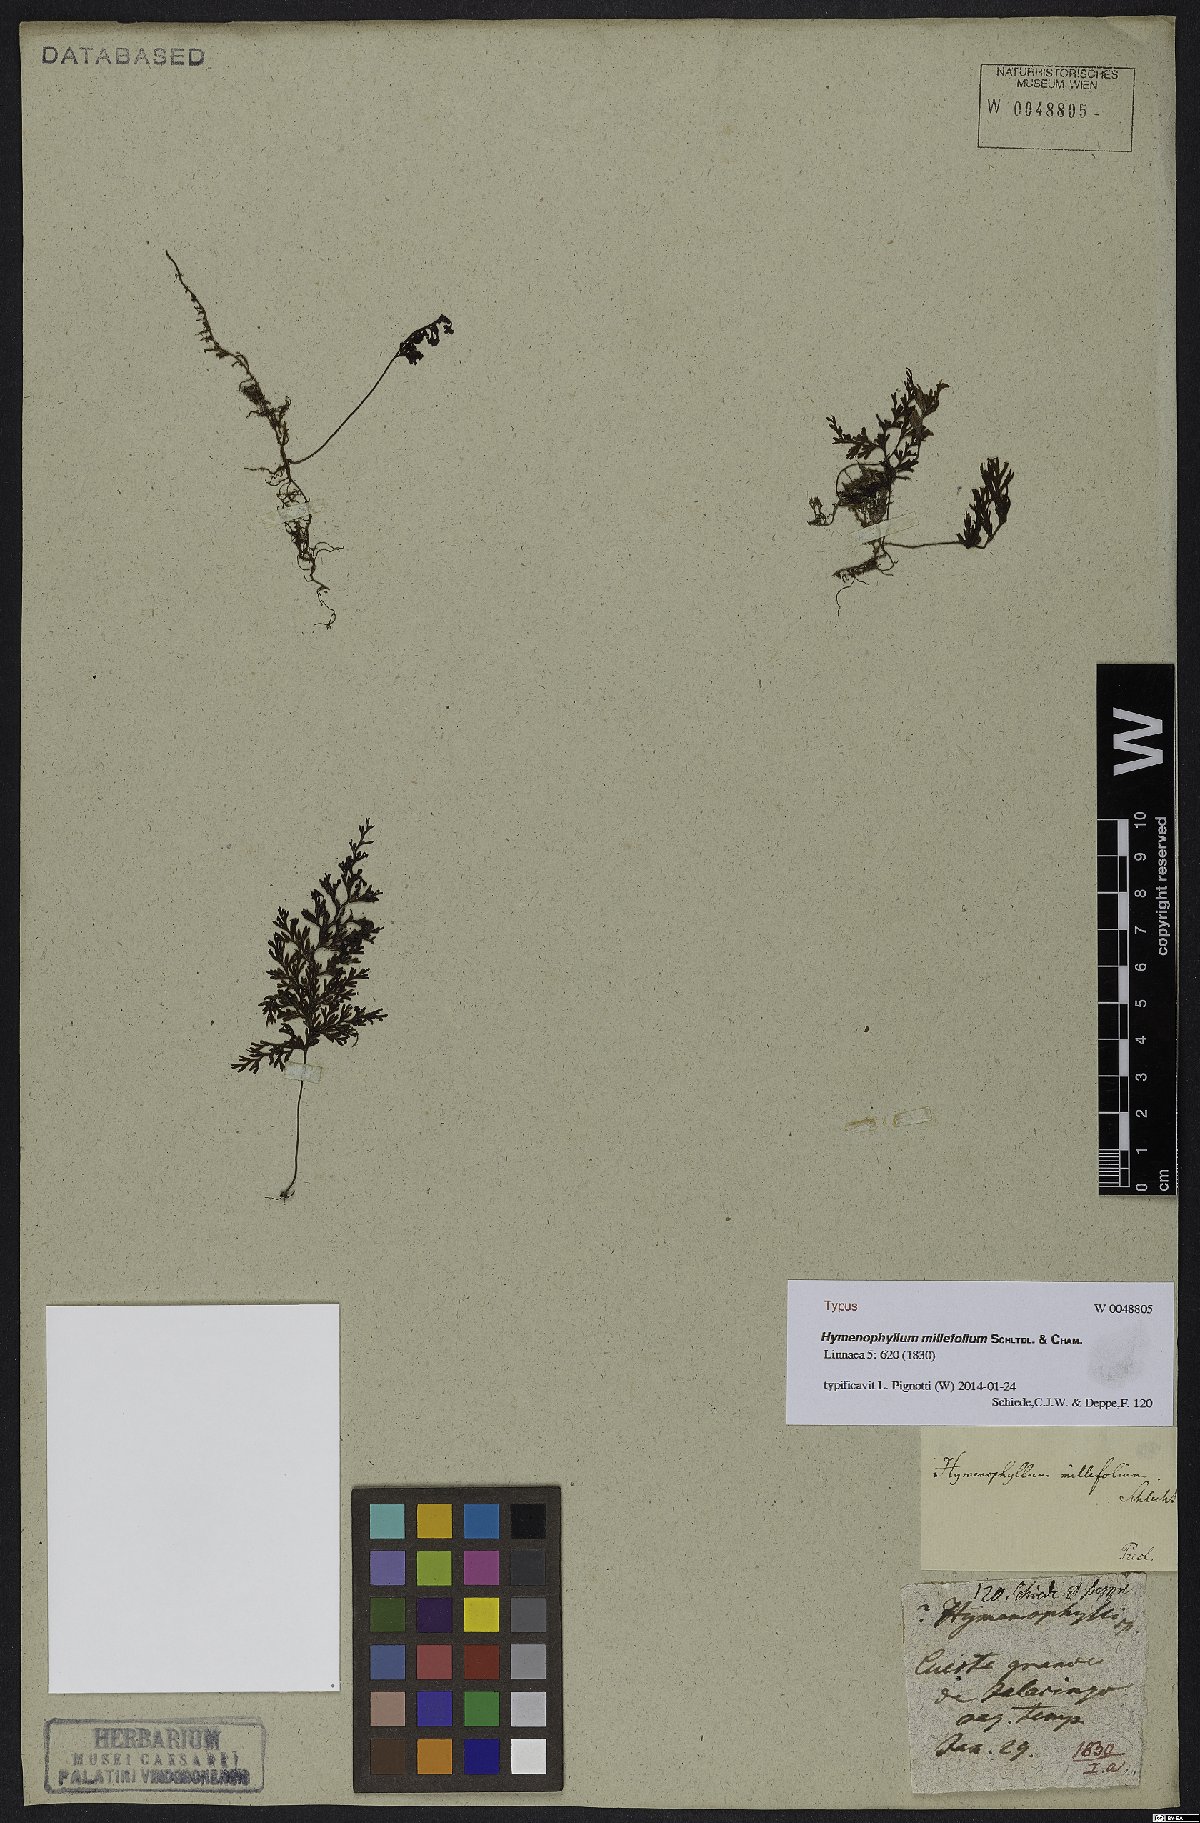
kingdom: Plantae
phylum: Tracheophyta
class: Polypodiopsida
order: Hymenophyllales
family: Hymenophyllaceae
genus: Hymenophyllum
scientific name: Hymenophyllum polyanthos
